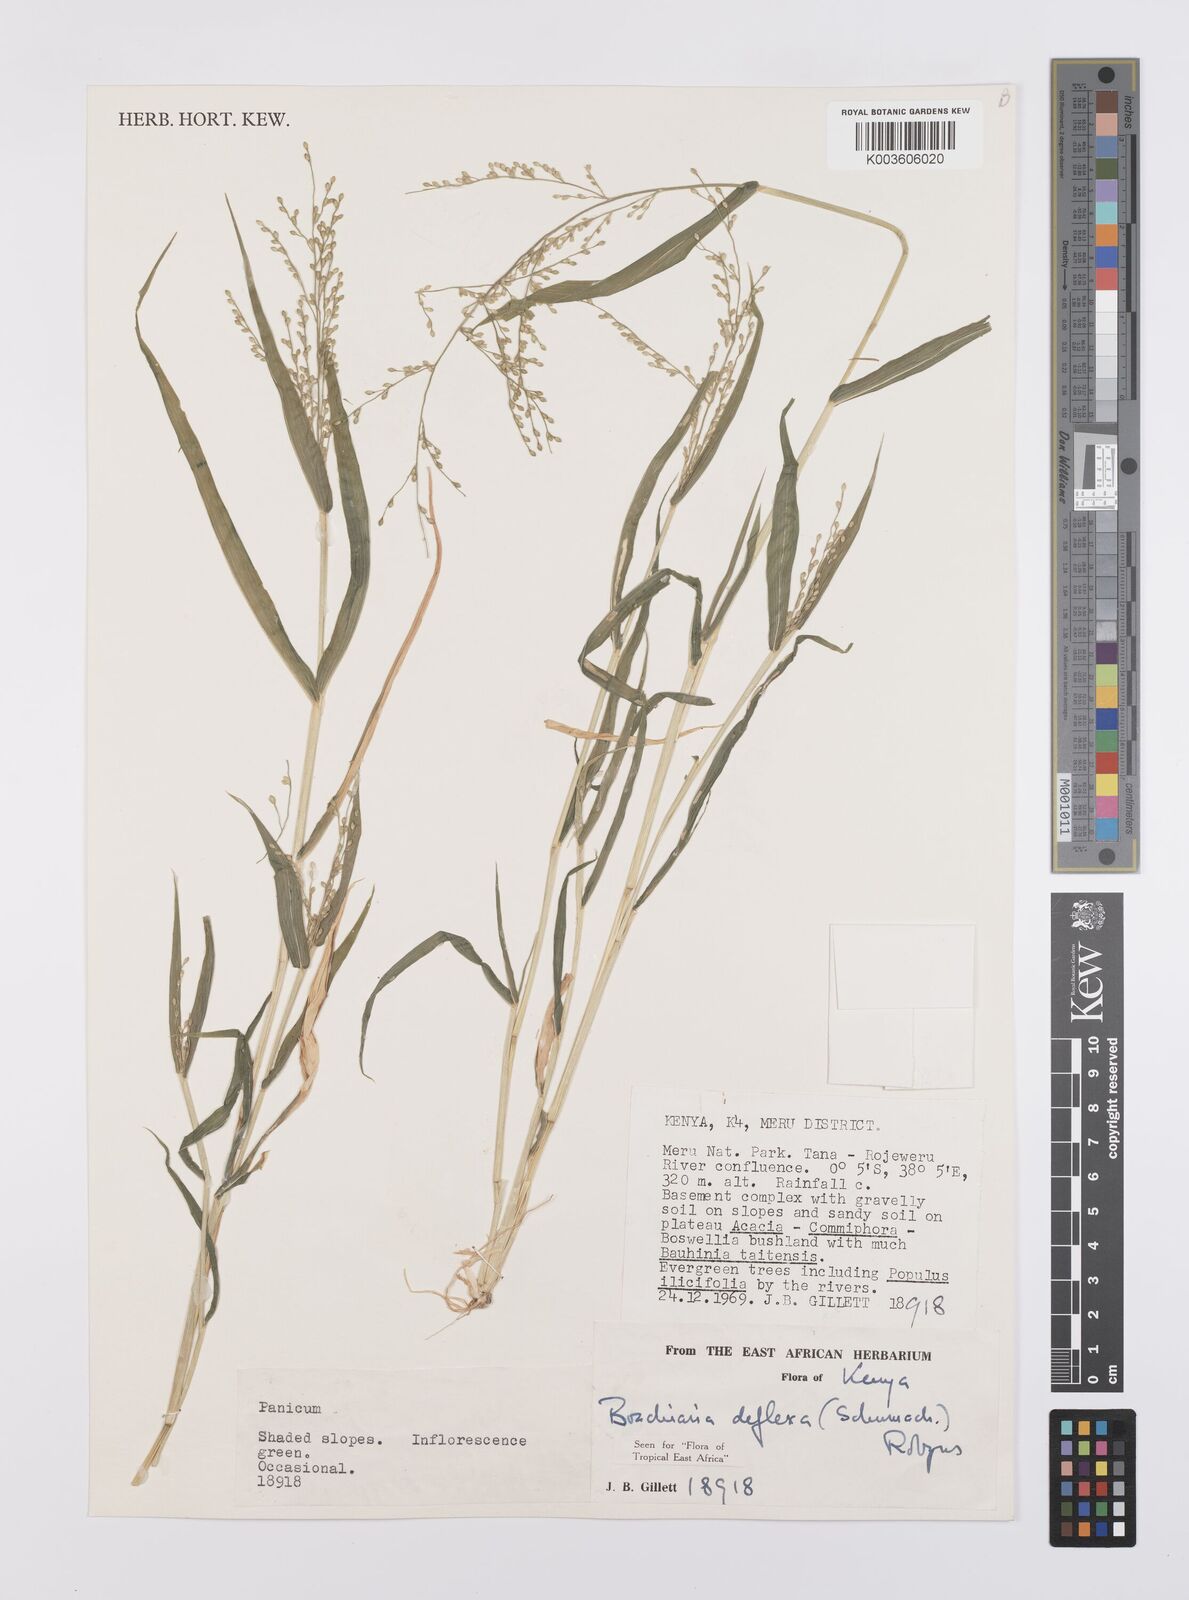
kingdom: Plantae
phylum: Tracheophyta
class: Liliopsida
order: Poales
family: Poaceae
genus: Urochloa
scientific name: Urochloa deflexa
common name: Guinea millet
